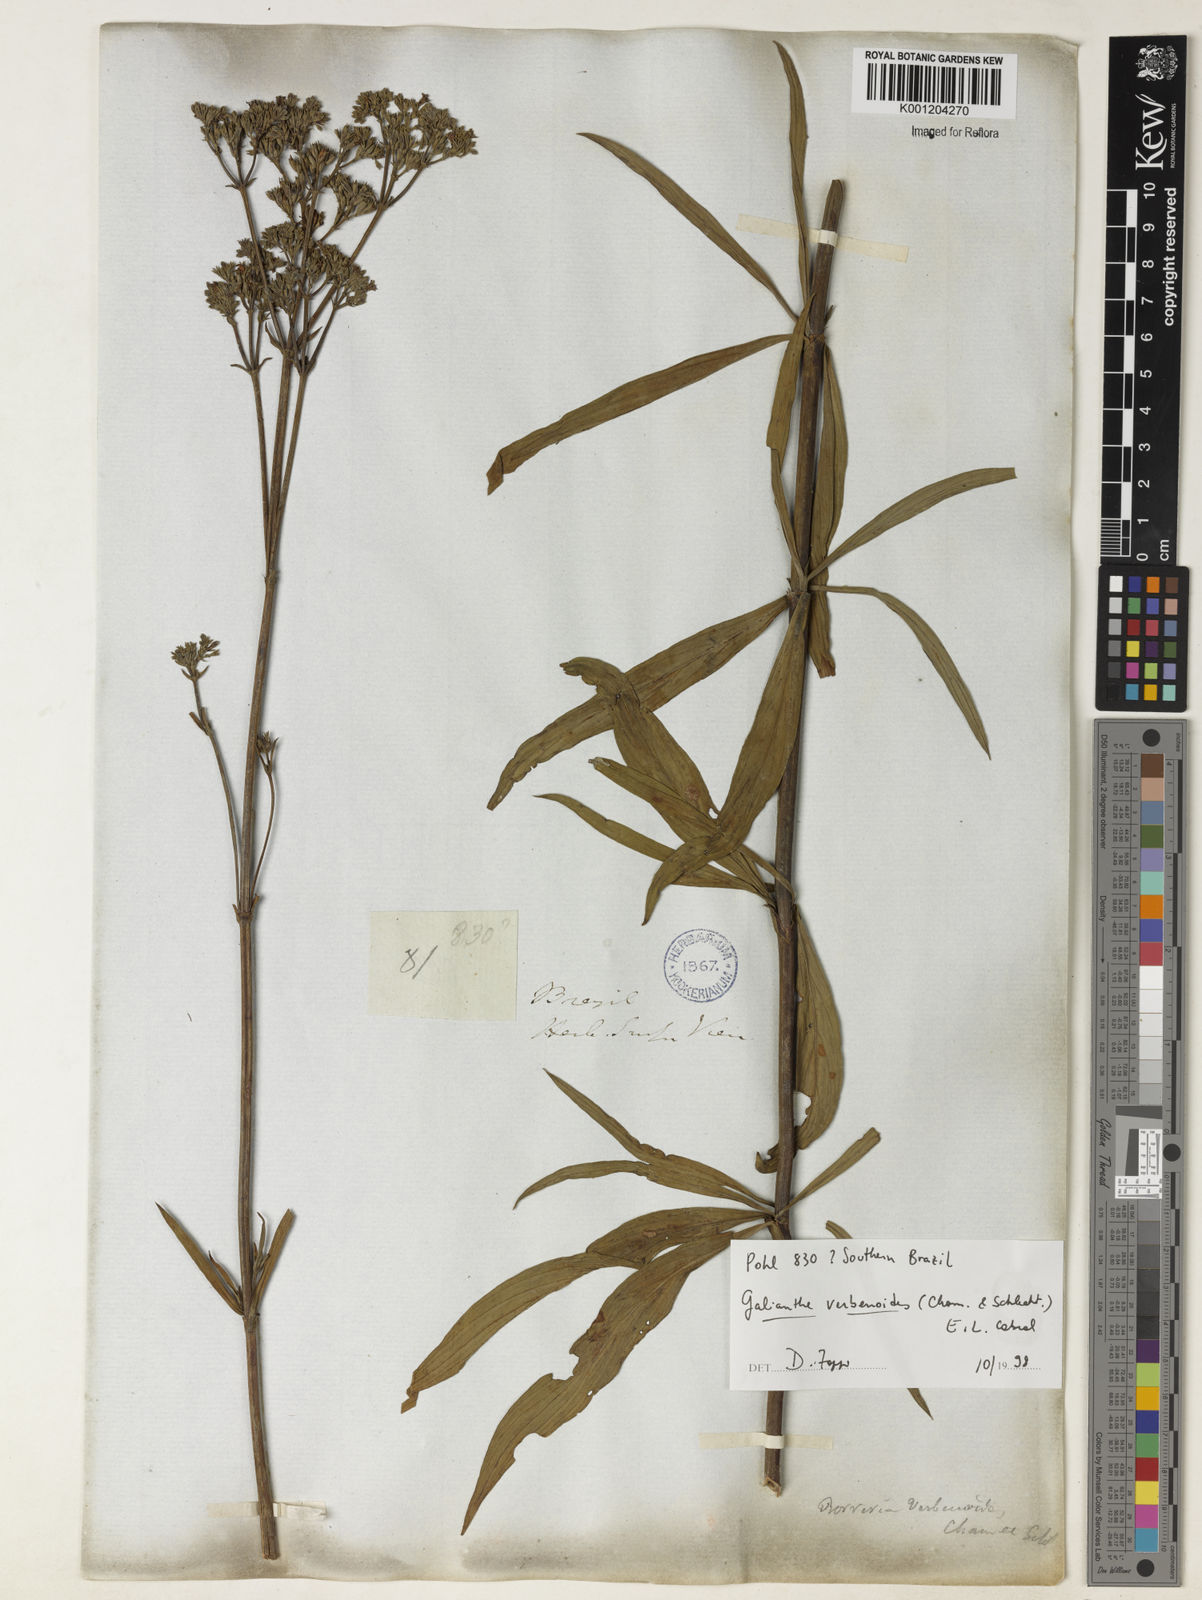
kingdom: Plantae
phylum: Tracheophyta
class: Magnoliopsida
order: Gentianales
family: Rubiaceae
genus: Galianthe
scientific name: Galianthe verbenoides
